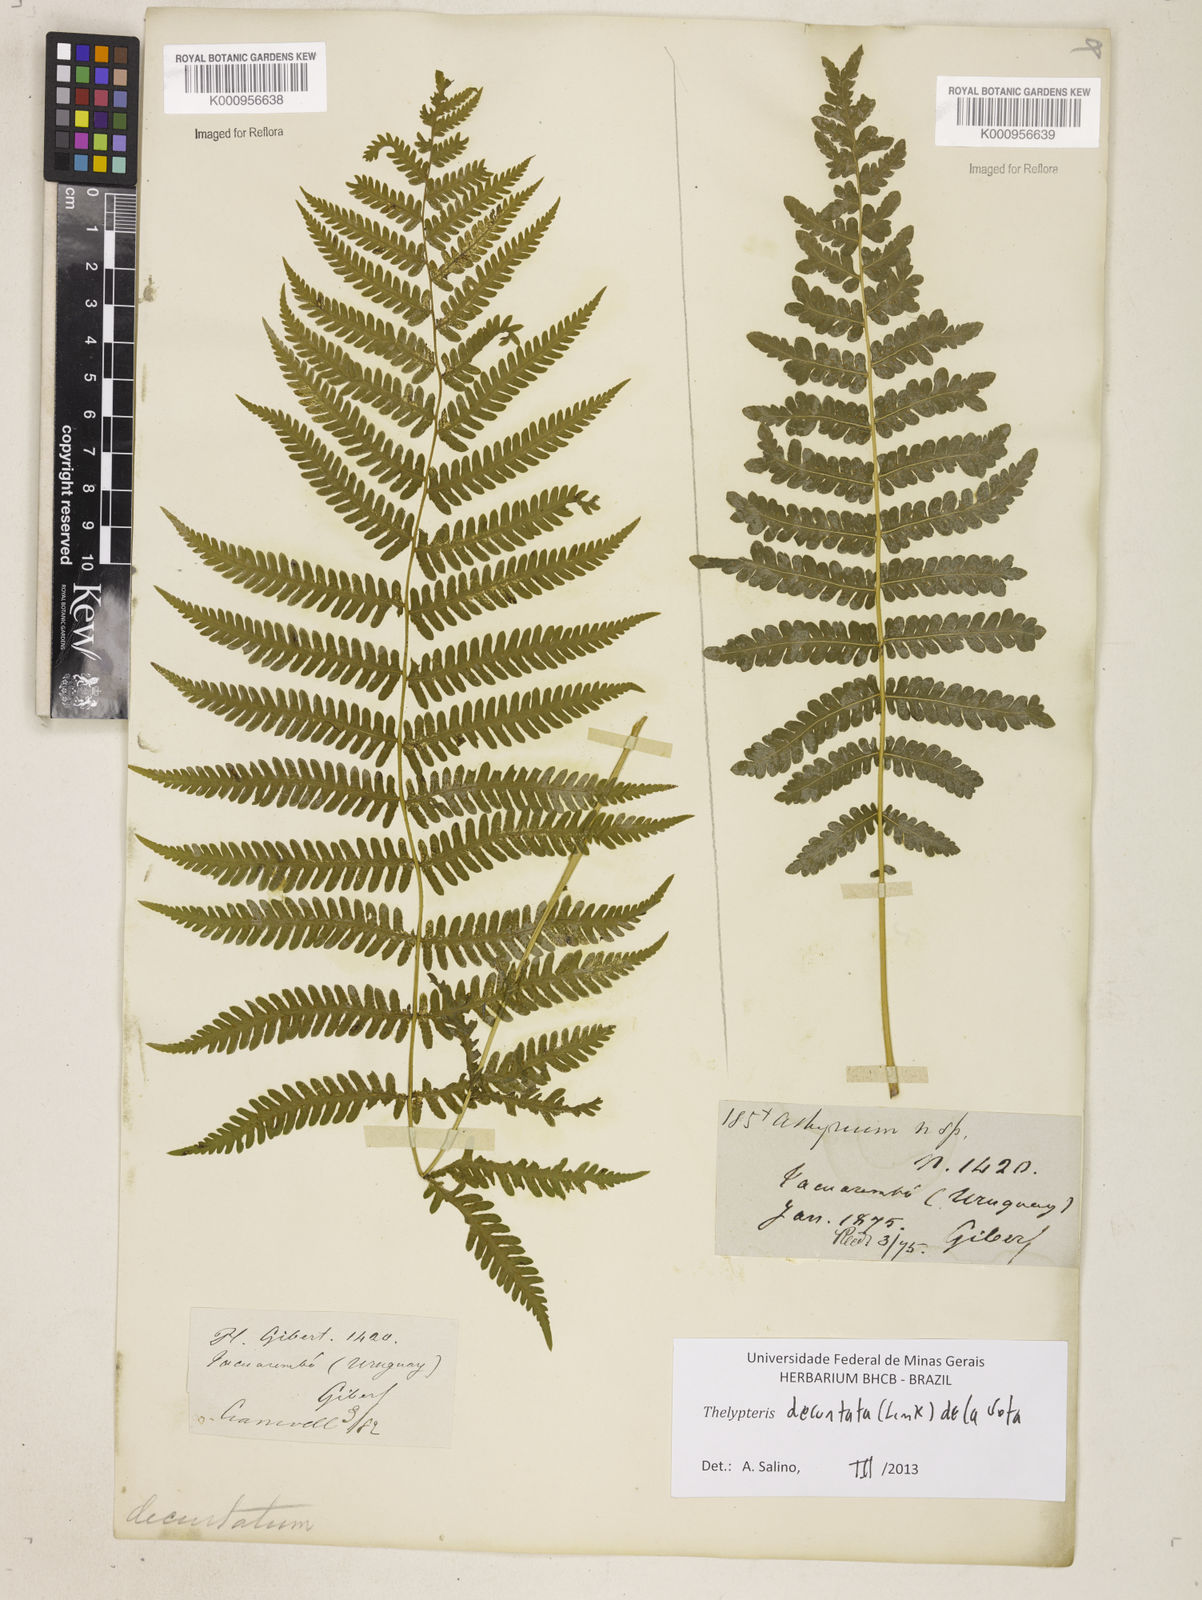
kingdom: Plantae
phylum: Tracheophyta
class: Polypodiopsida
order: Polypodiales
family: Thelypteridaceae
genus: Amauropelta
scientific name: Amauropelta decurtata
